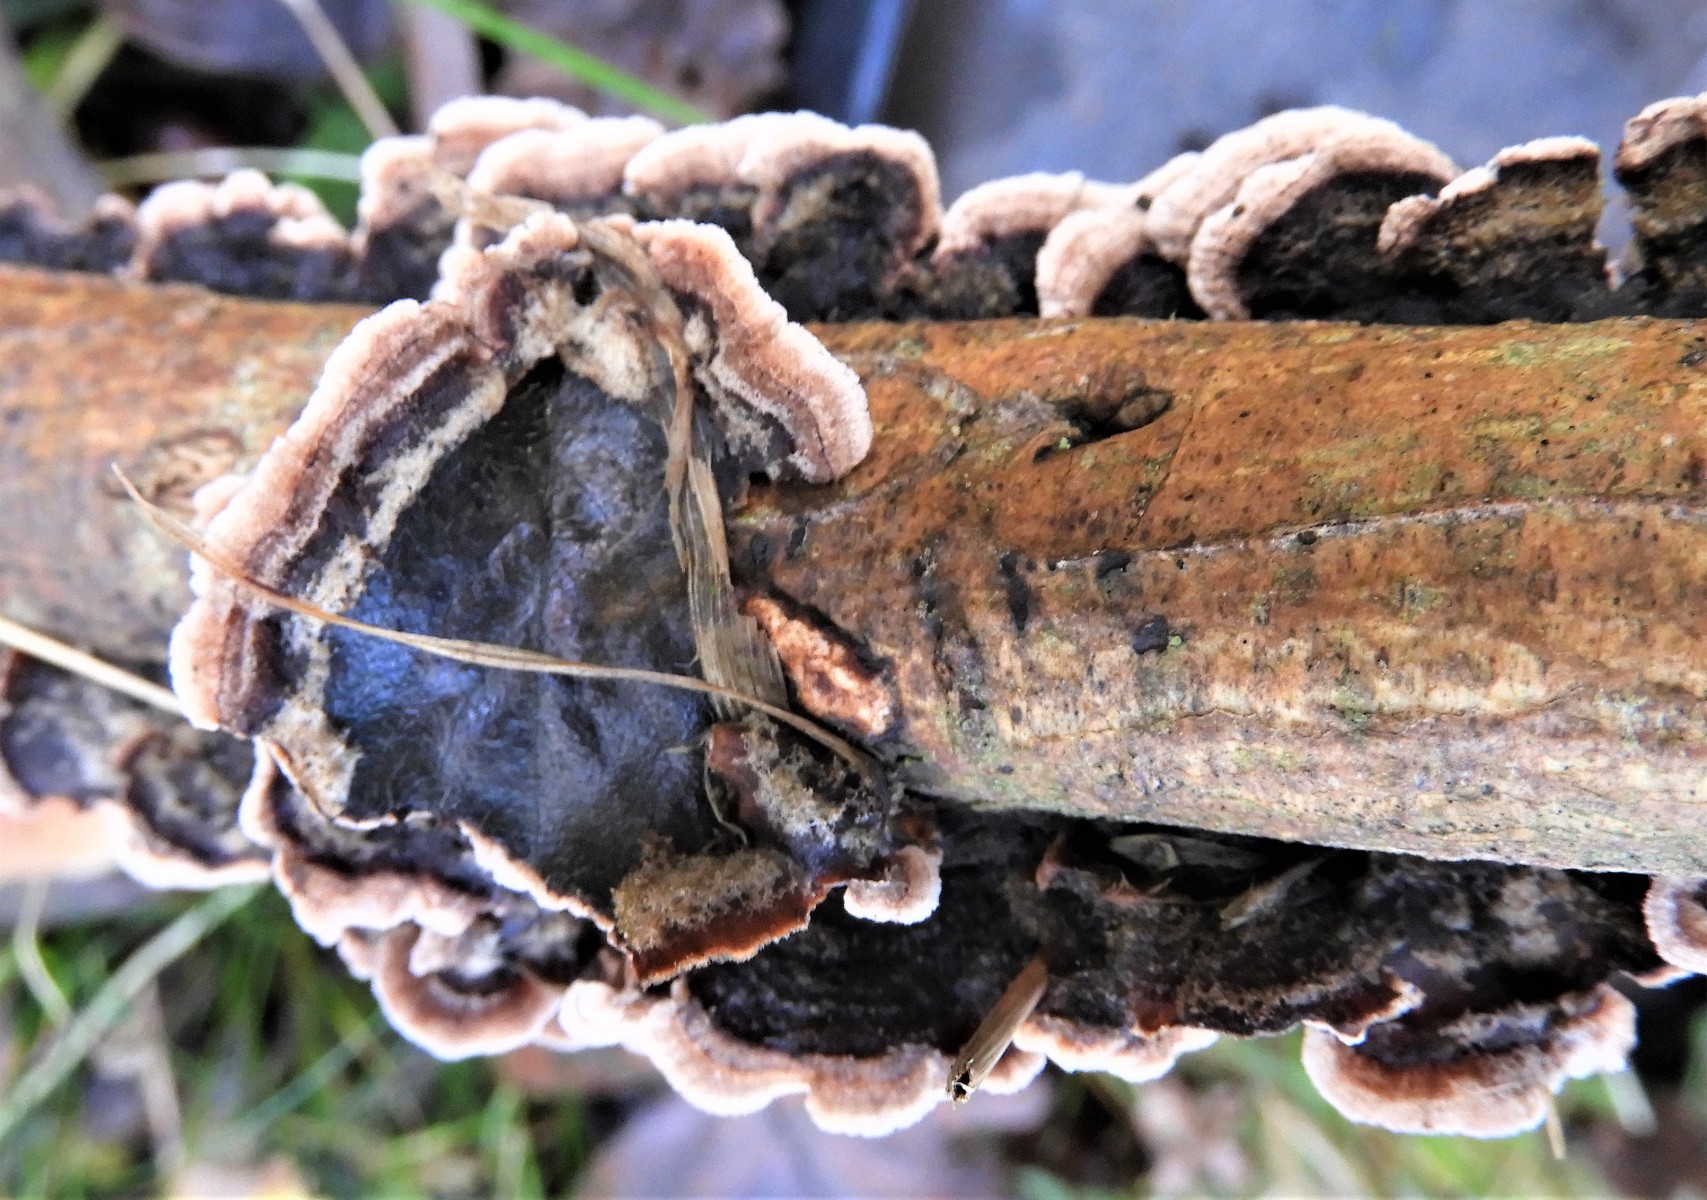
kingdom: Fungi
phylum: Basidiomycota
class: Agaricomycetes
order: Agaricales
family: Cyphellaceae
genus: Chondrostereum
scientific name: Chondrostereum purpureum
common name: purpurlædersvamp
